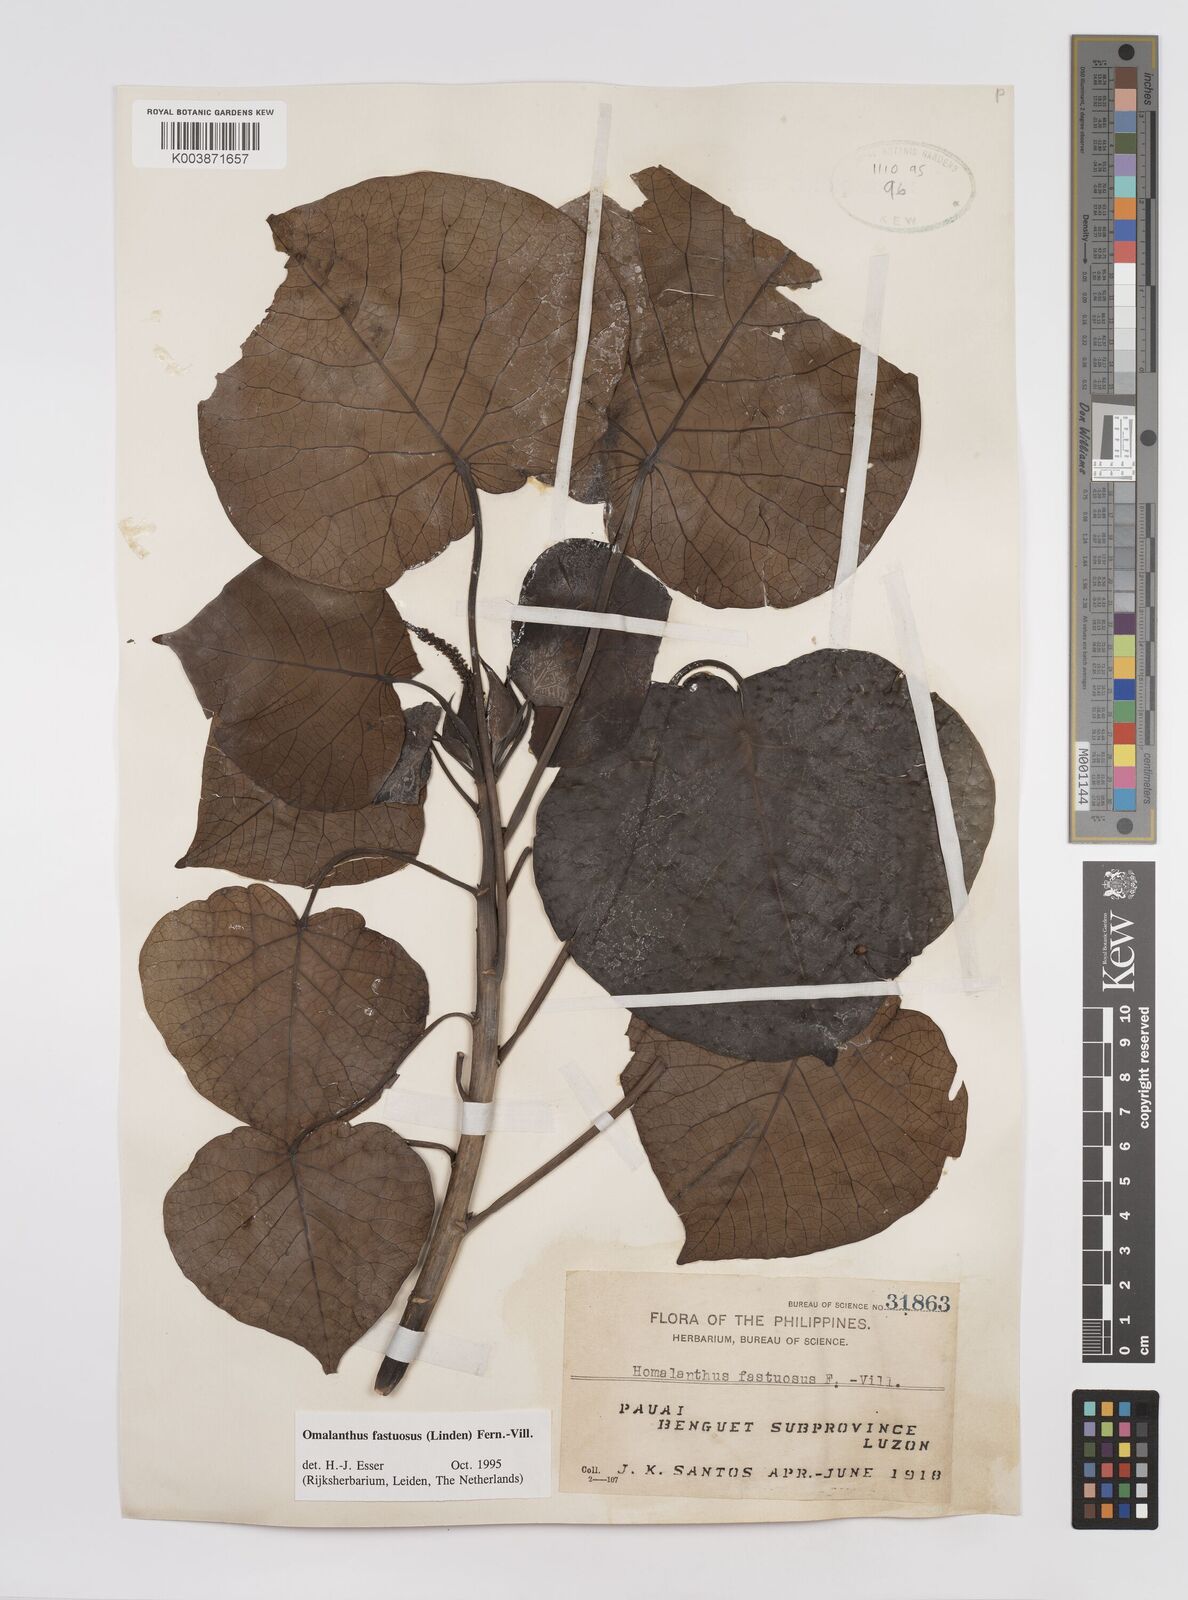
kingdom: Plantae
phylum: Tracheophyta
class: Magnoliopsida
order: Malpighiales
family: Euphorbiaceae
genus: Homalanthus
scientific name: Homalanthus fastuosus
